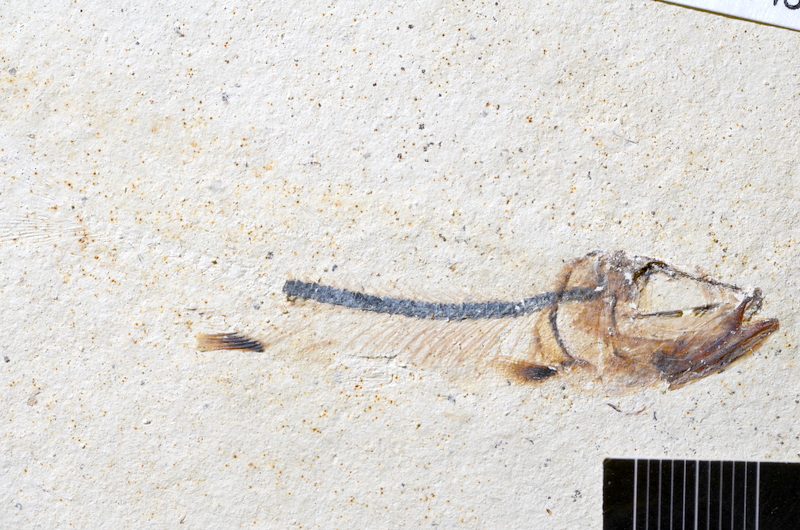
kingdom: Animalia
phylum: Chordata
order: Salmoniformes
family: Orthogonikleithridae
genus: Orthogonikleithrus
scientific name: Orthogonikleithrus hoelli
